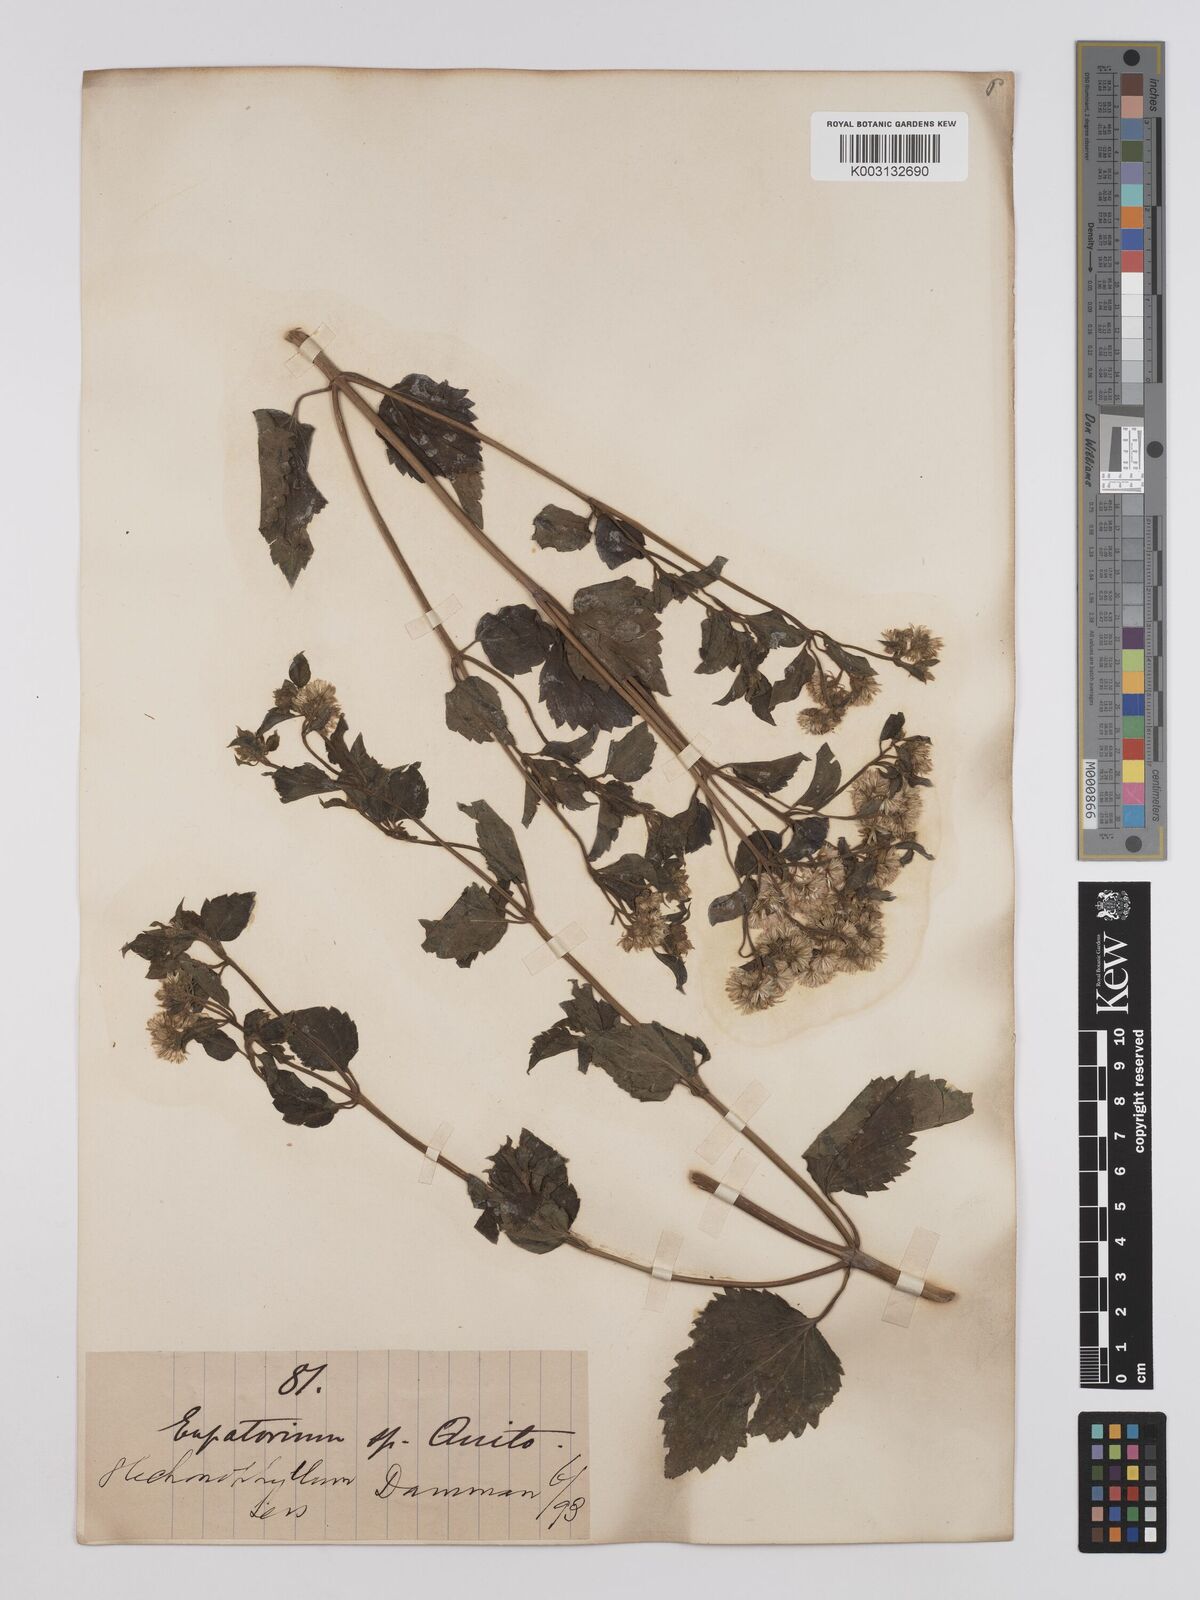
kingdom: Plantae
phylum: Tracheophyta
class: Magnoliopsida
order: Asterales
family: Asteraceae
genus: Ageratina
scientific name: Ageratina glechonophylla
